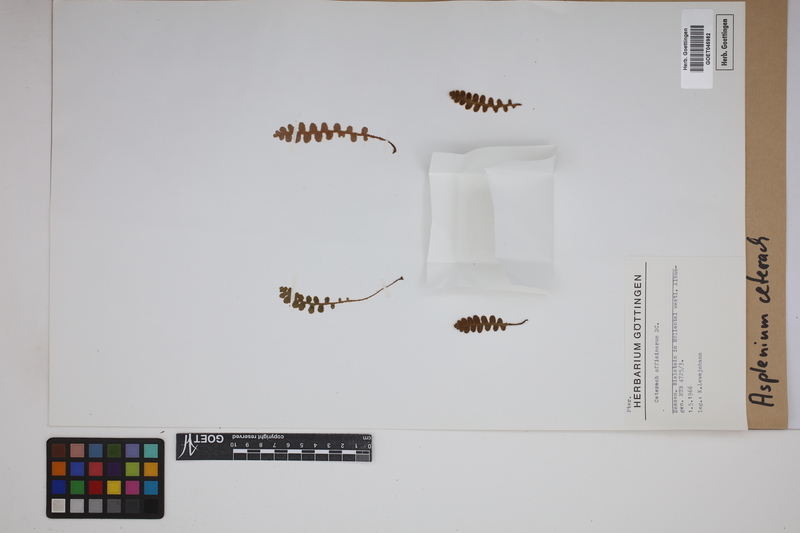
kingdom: Plantae
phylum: Tracheophyta
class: Polypodiopsida
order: Polypodiales
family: Aspleniaceae
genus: Asplenium
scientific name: Asplenium ceterach
